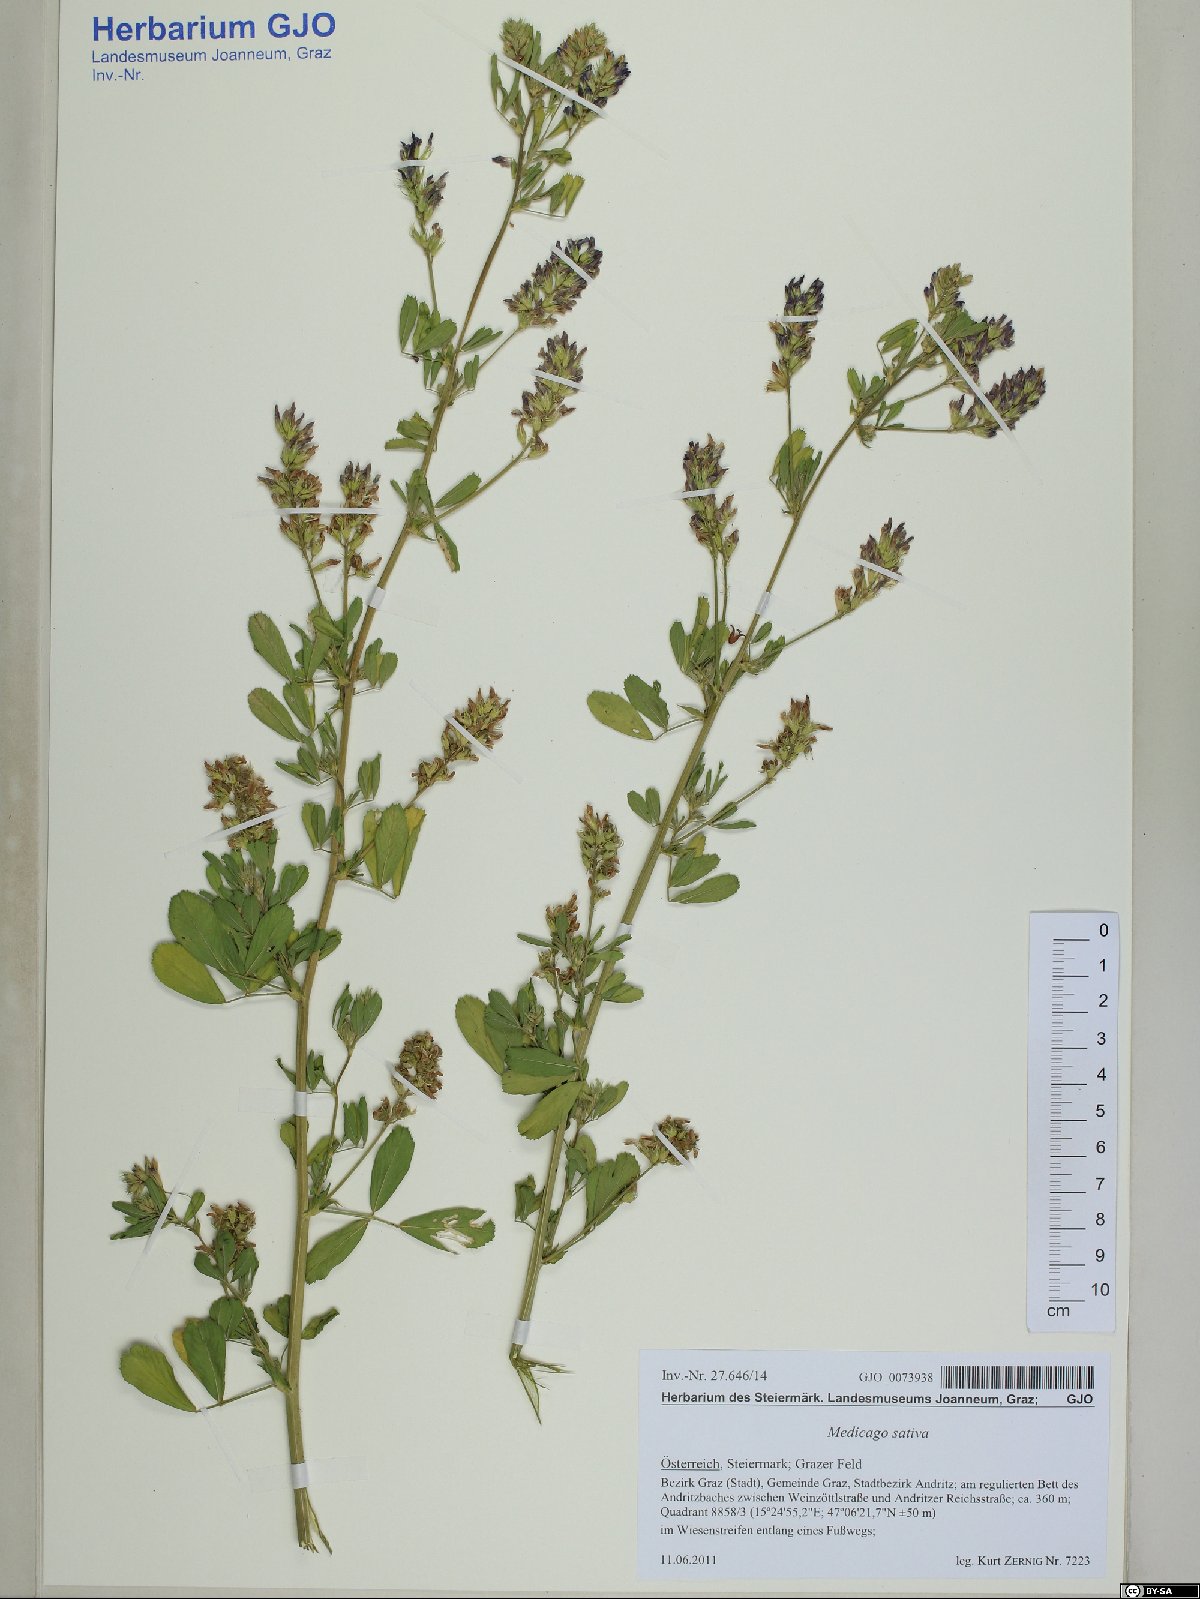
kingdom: Plantae
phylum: Tracheophyta
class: Magnoliopsida
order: Fabales
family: Fabaceae
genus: Medicago
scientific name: Medicago sativa
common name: Alfalfa
